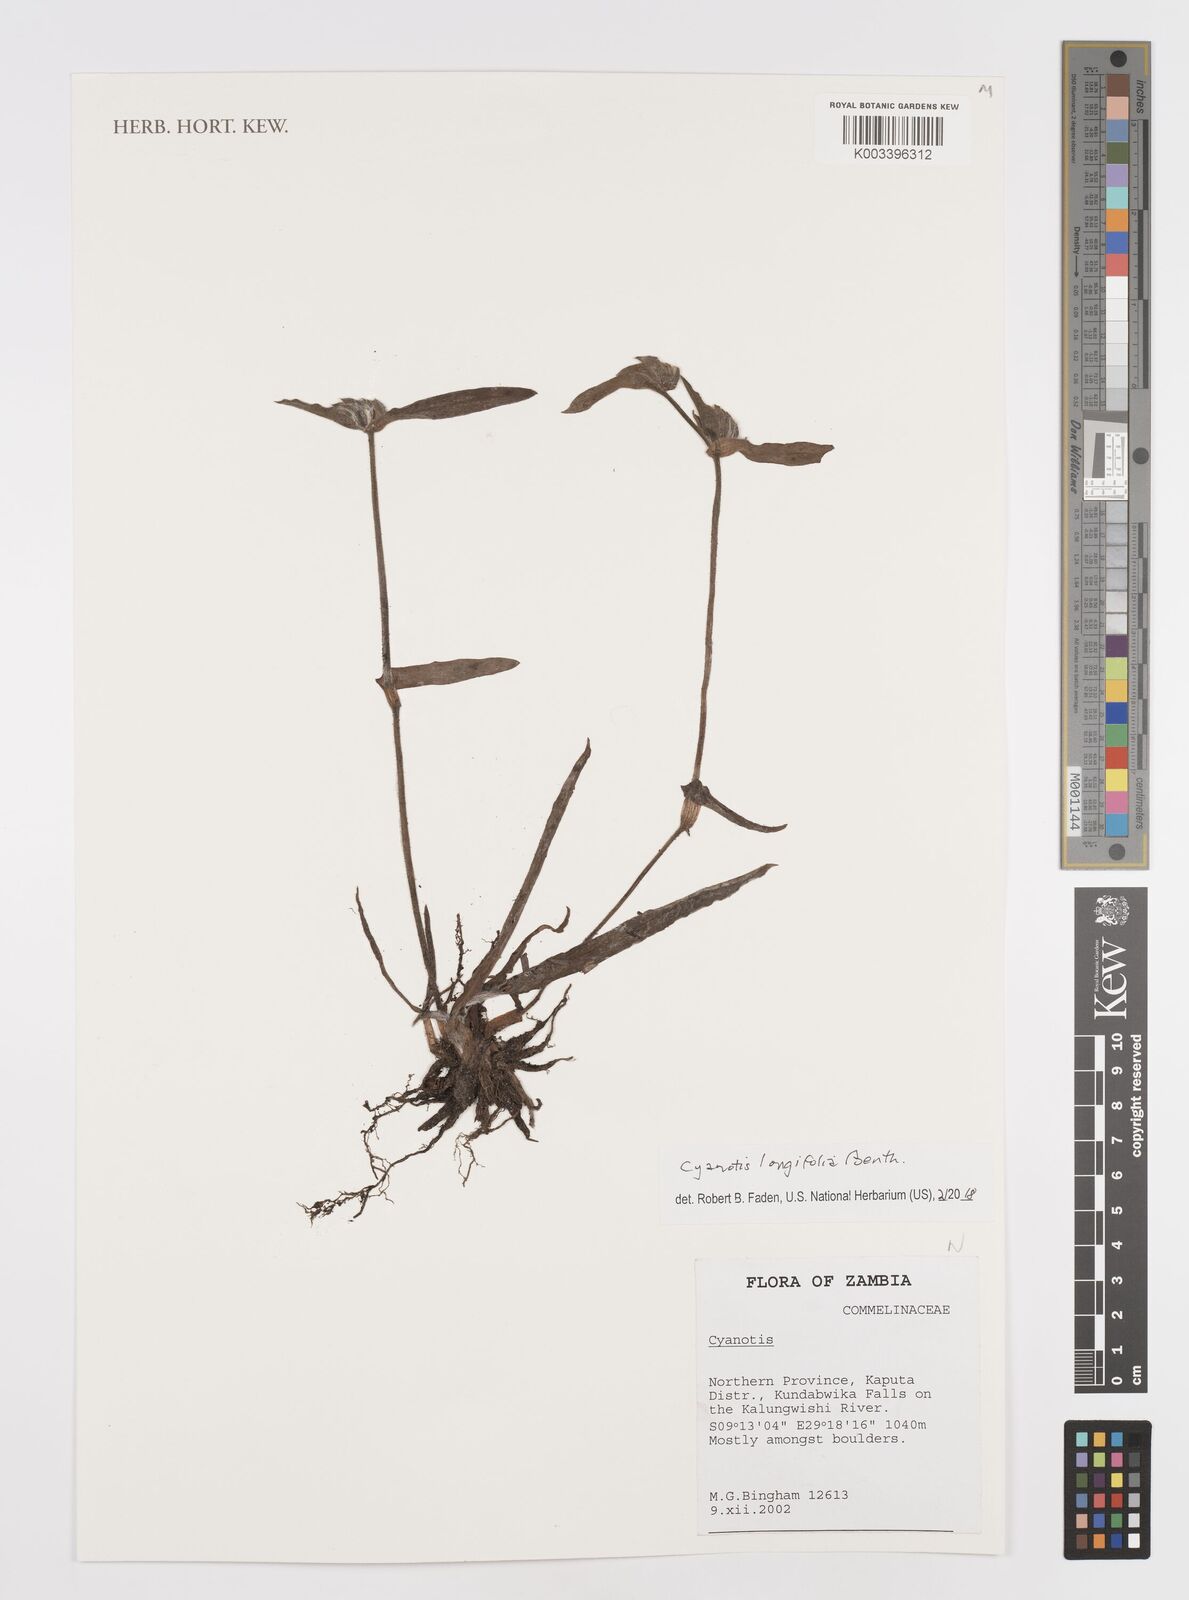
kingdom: Plantae
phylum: Tracheophyta
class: Liliopsida
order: Commelinales
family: Commelinaceae
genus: Cyanotis
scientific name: Cyanotis longifolia
